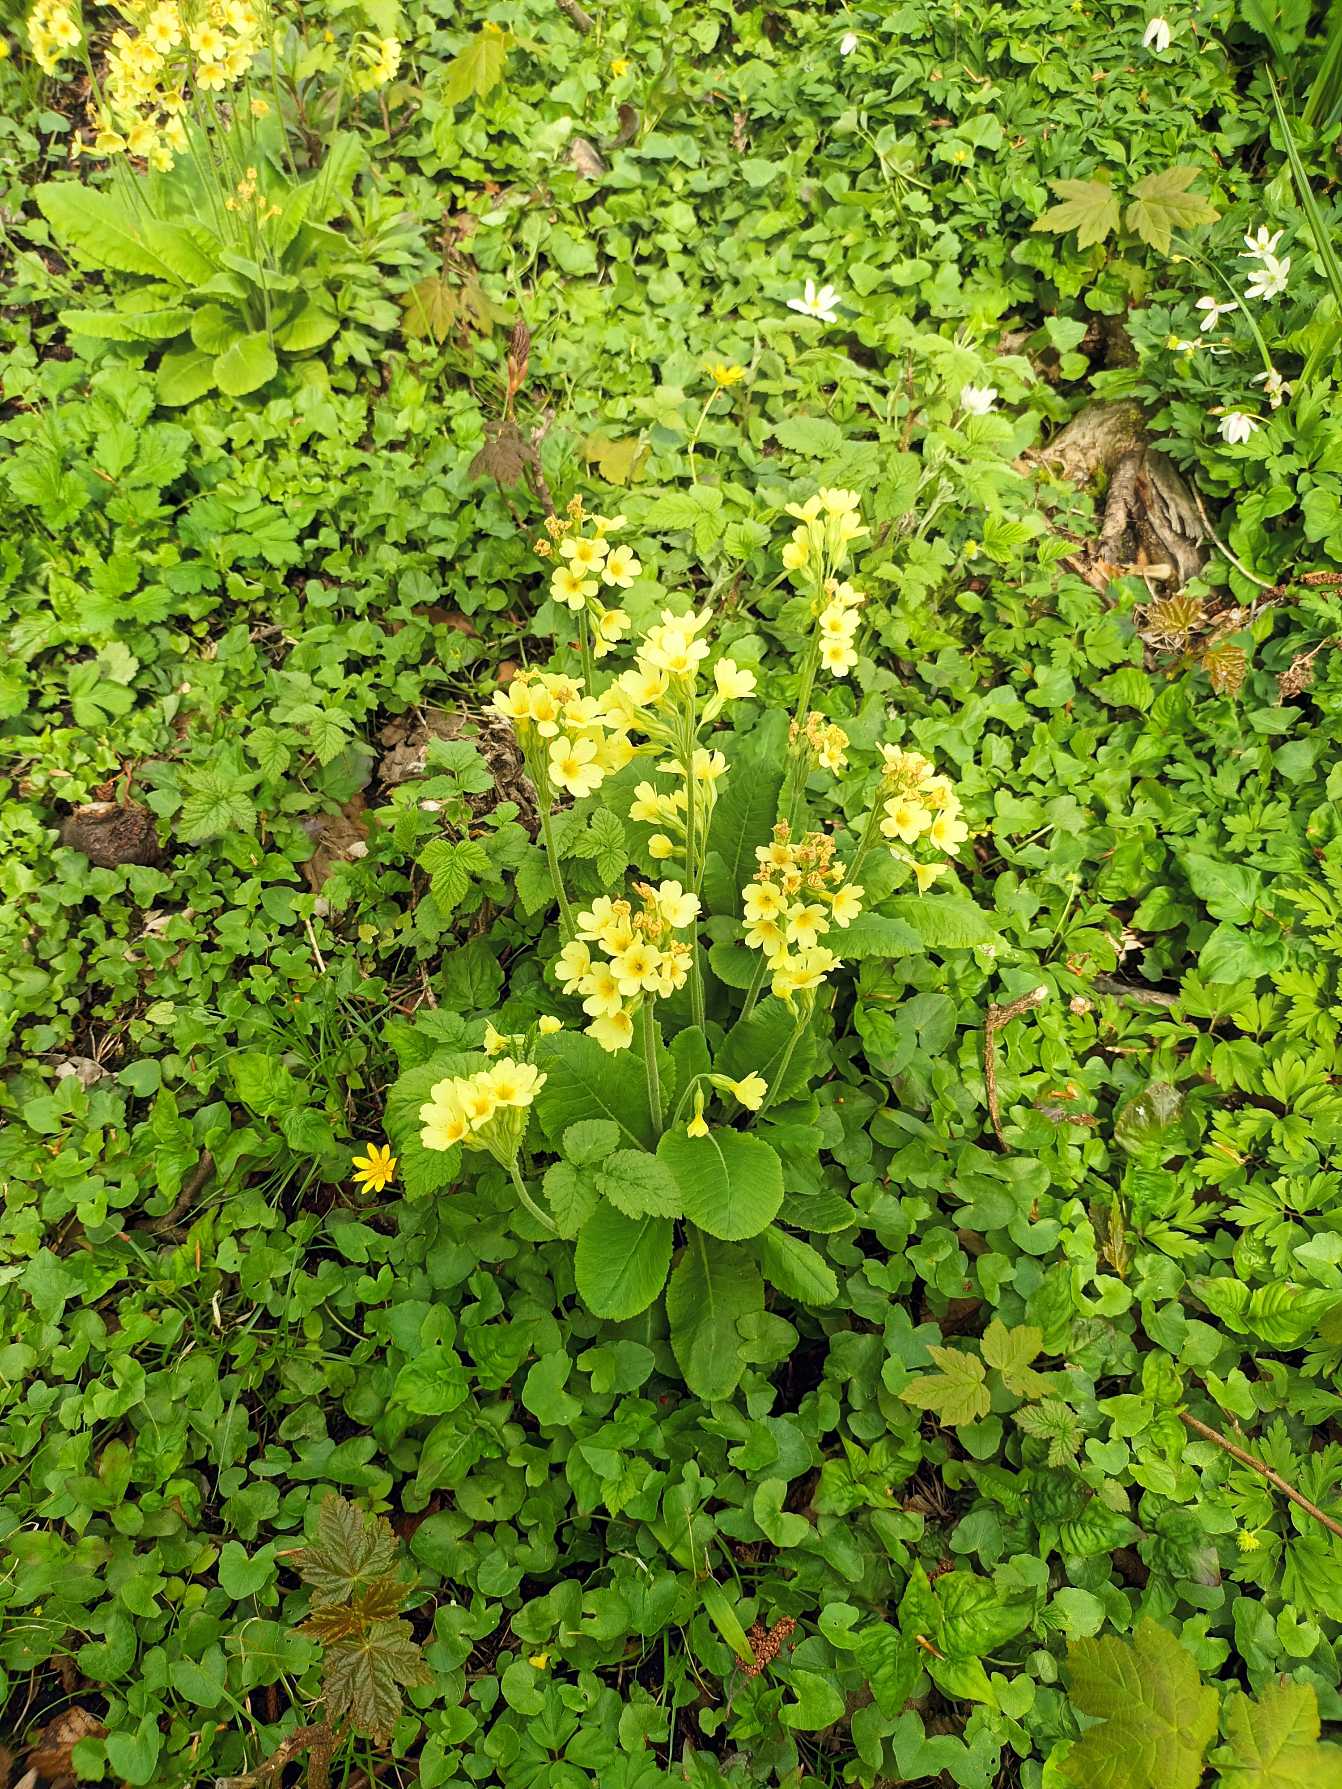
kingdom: Plantae
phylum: Tracheophyta
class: Magnoliopsida
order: Ericales
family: Primulaceae
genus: Primula
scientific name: Primula elatior
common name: Fladkravet kodriver
